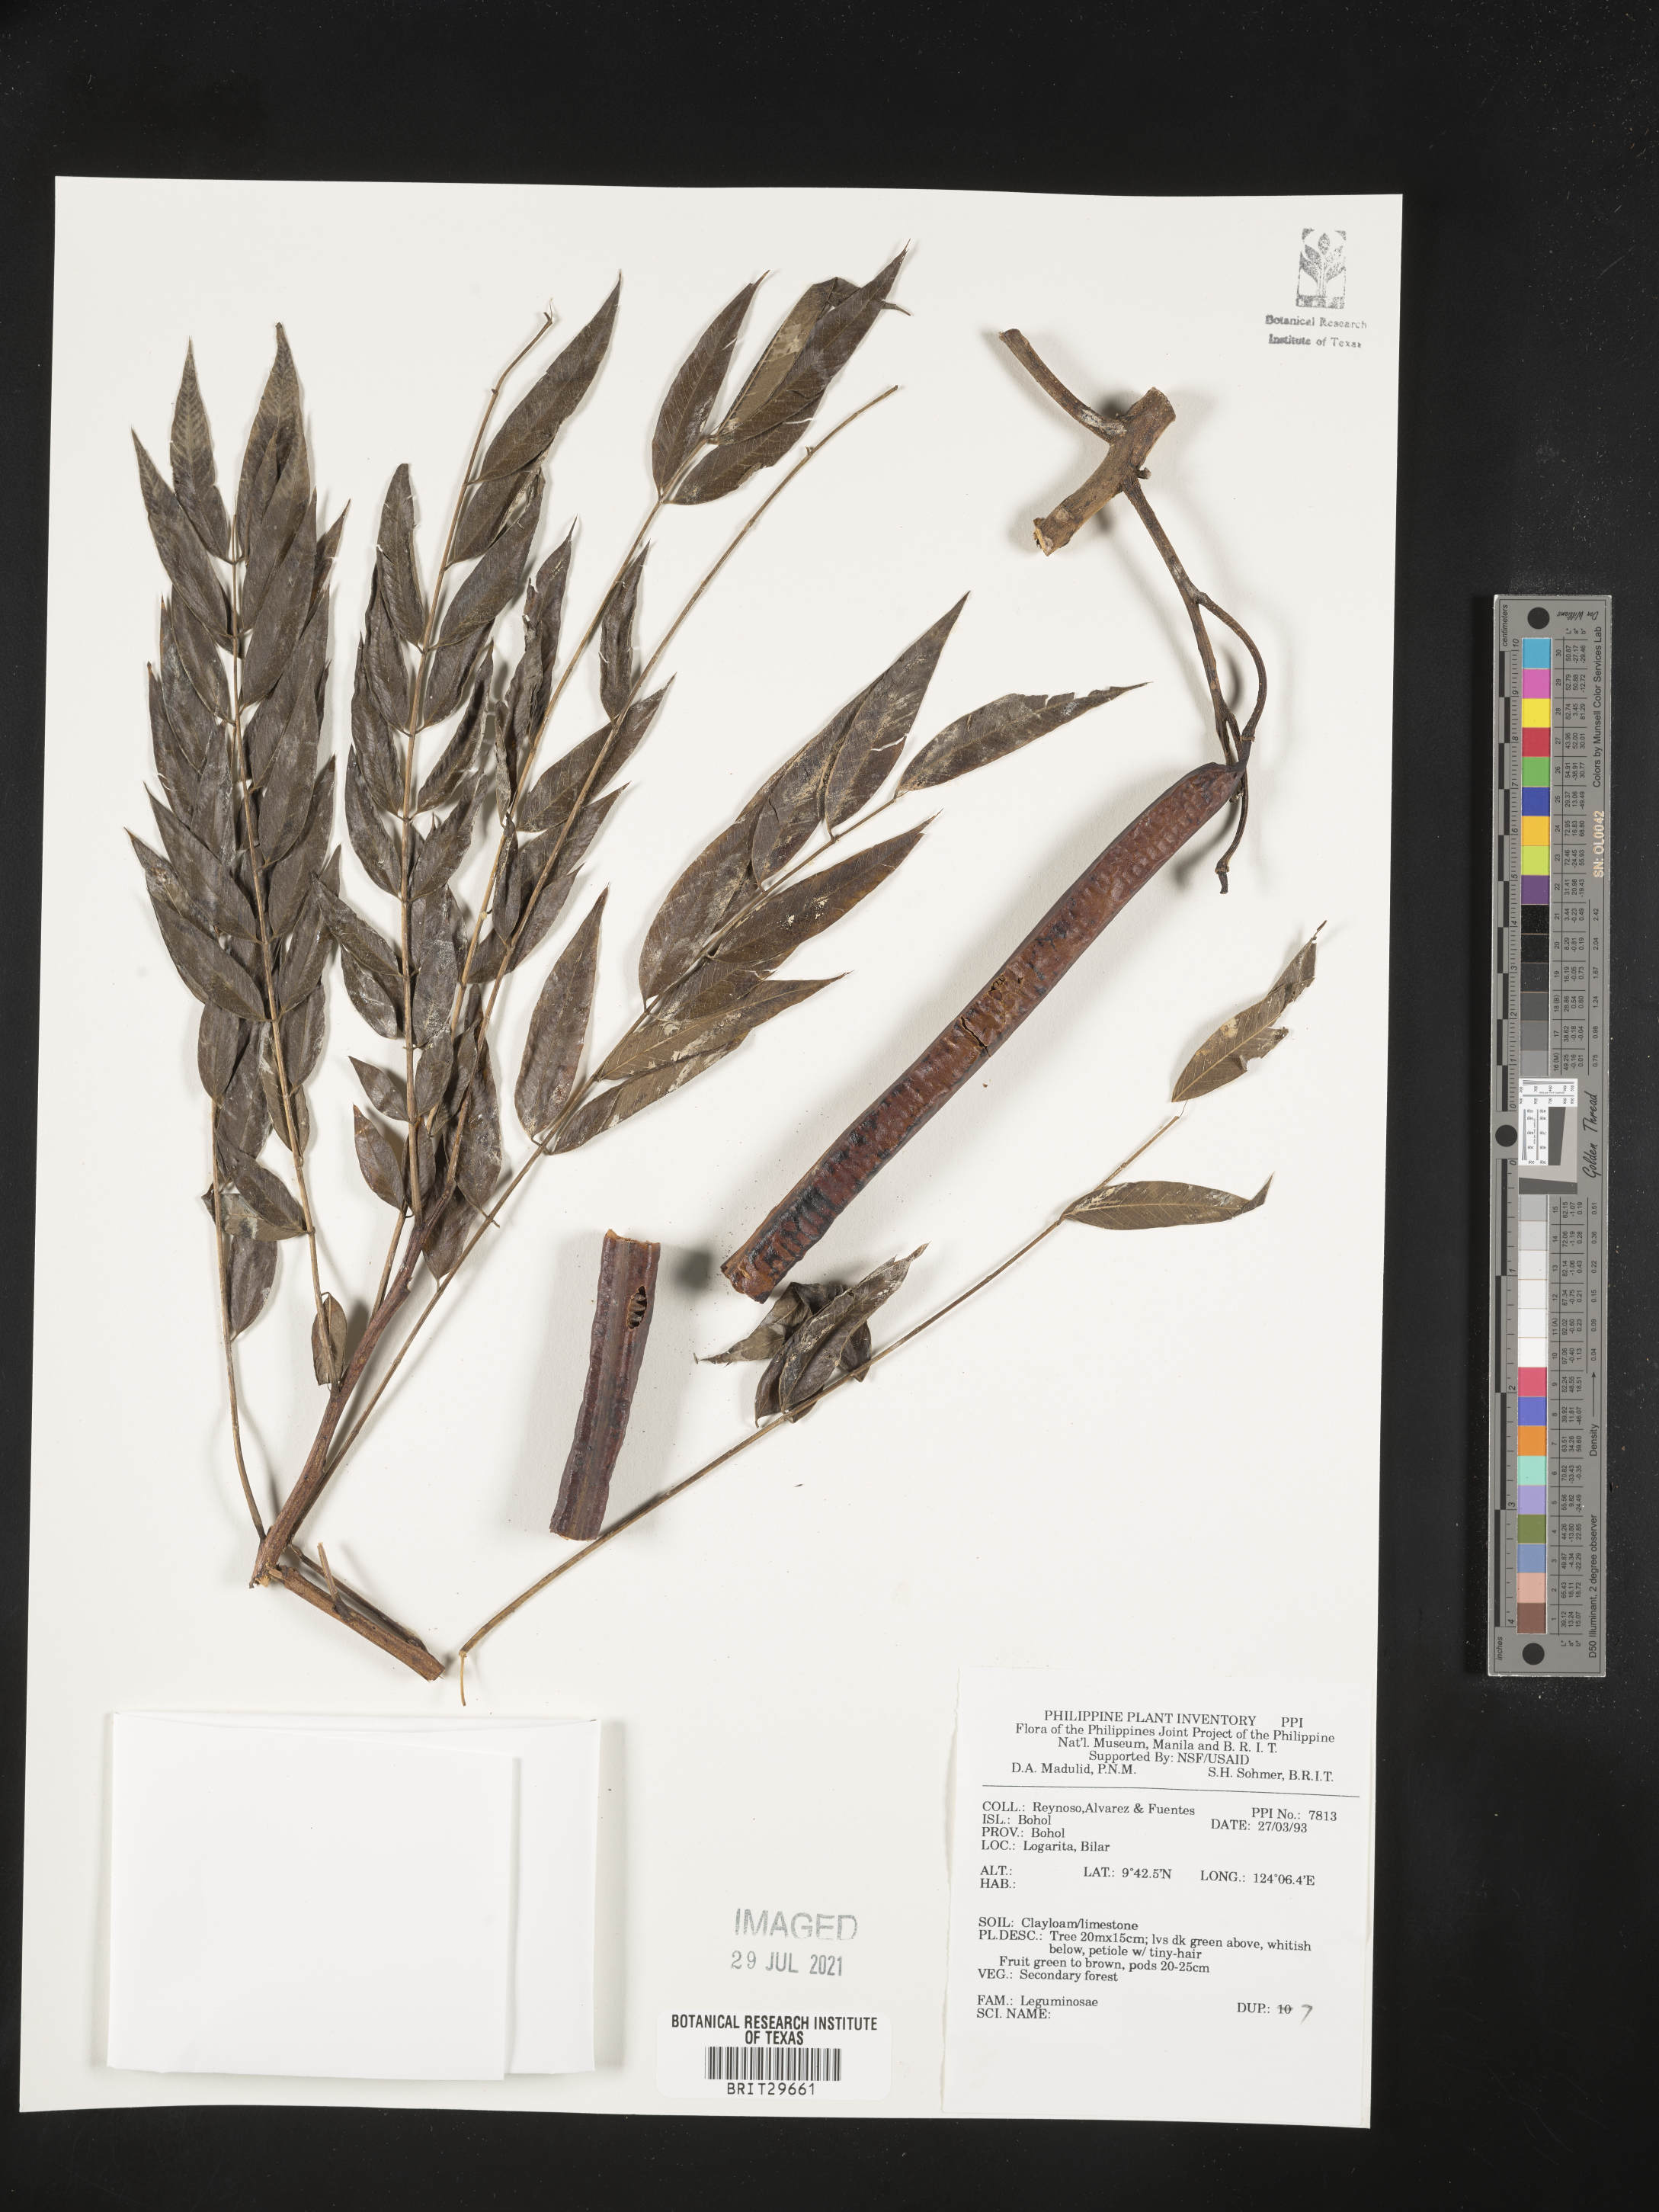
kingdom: Plantae
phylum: Tracheophyta
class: Magnoliopsida
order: Fabales
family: Fabaceae
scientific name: Fabaceae
